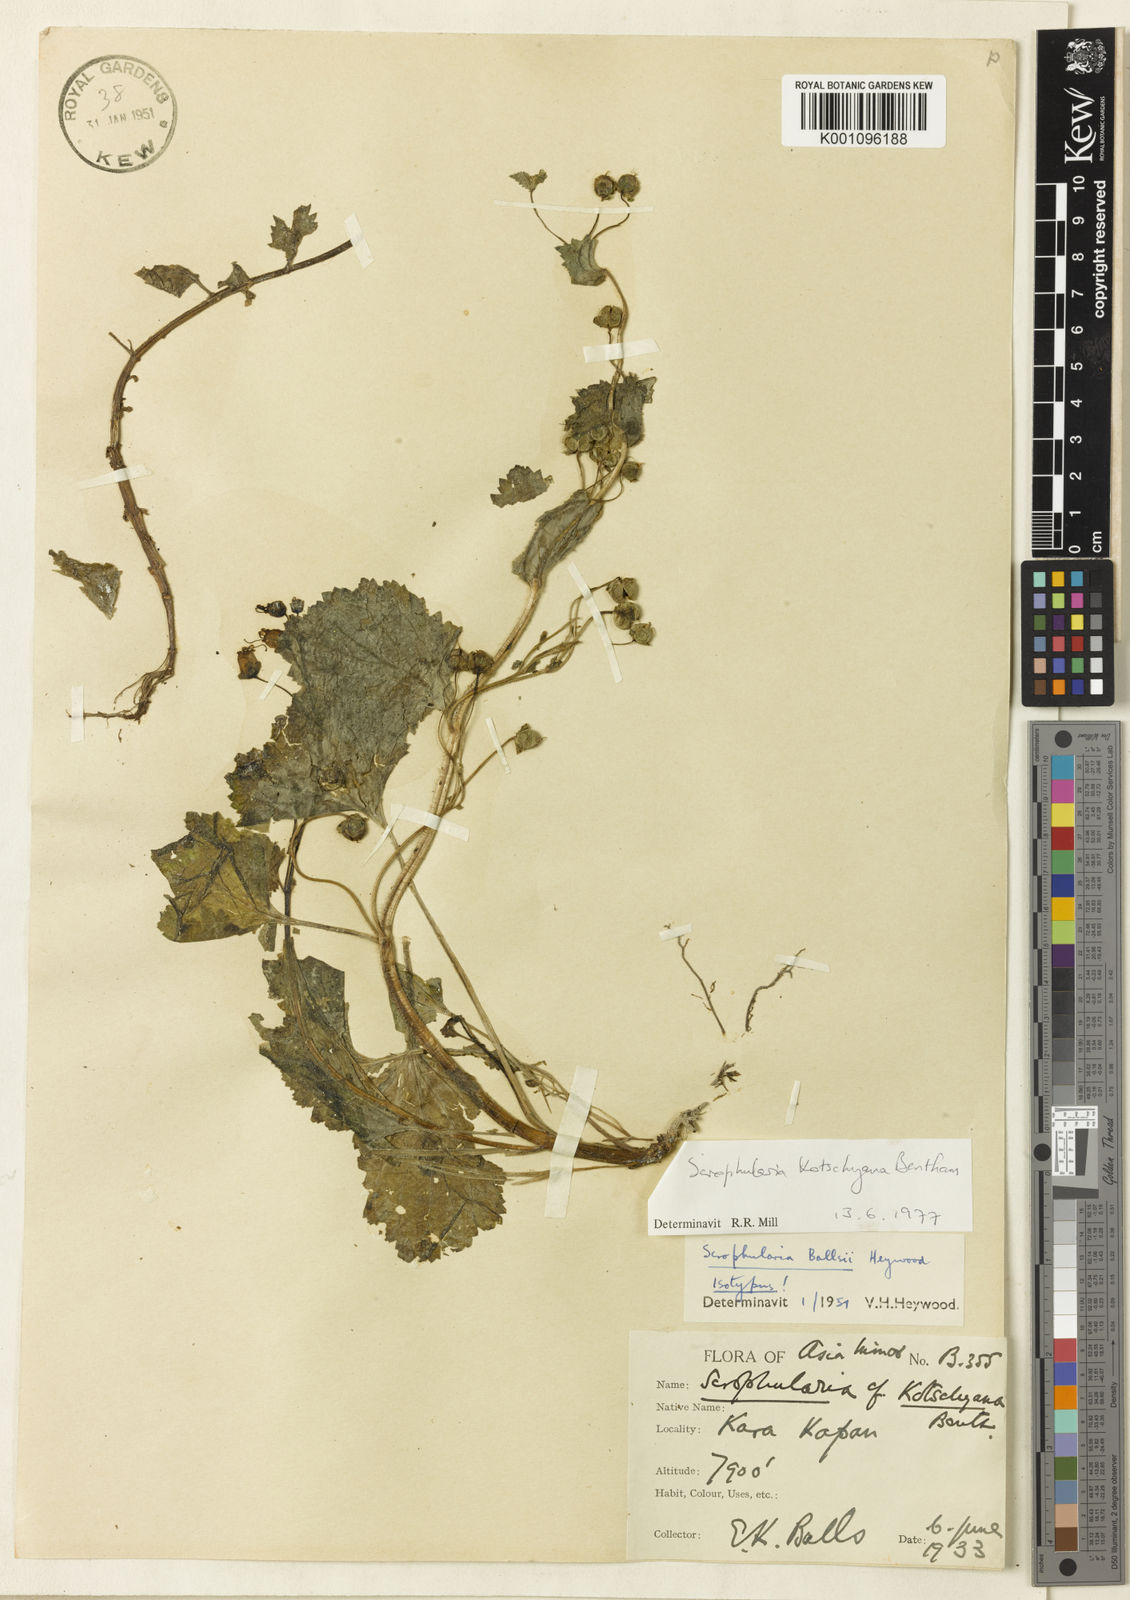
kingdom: Plantae
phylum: Tracheophyta
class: Magnoliopsida
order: Lamiales
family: Scrophulariaceae
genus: Scrophularia
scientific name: Scrophularia kotschyana
